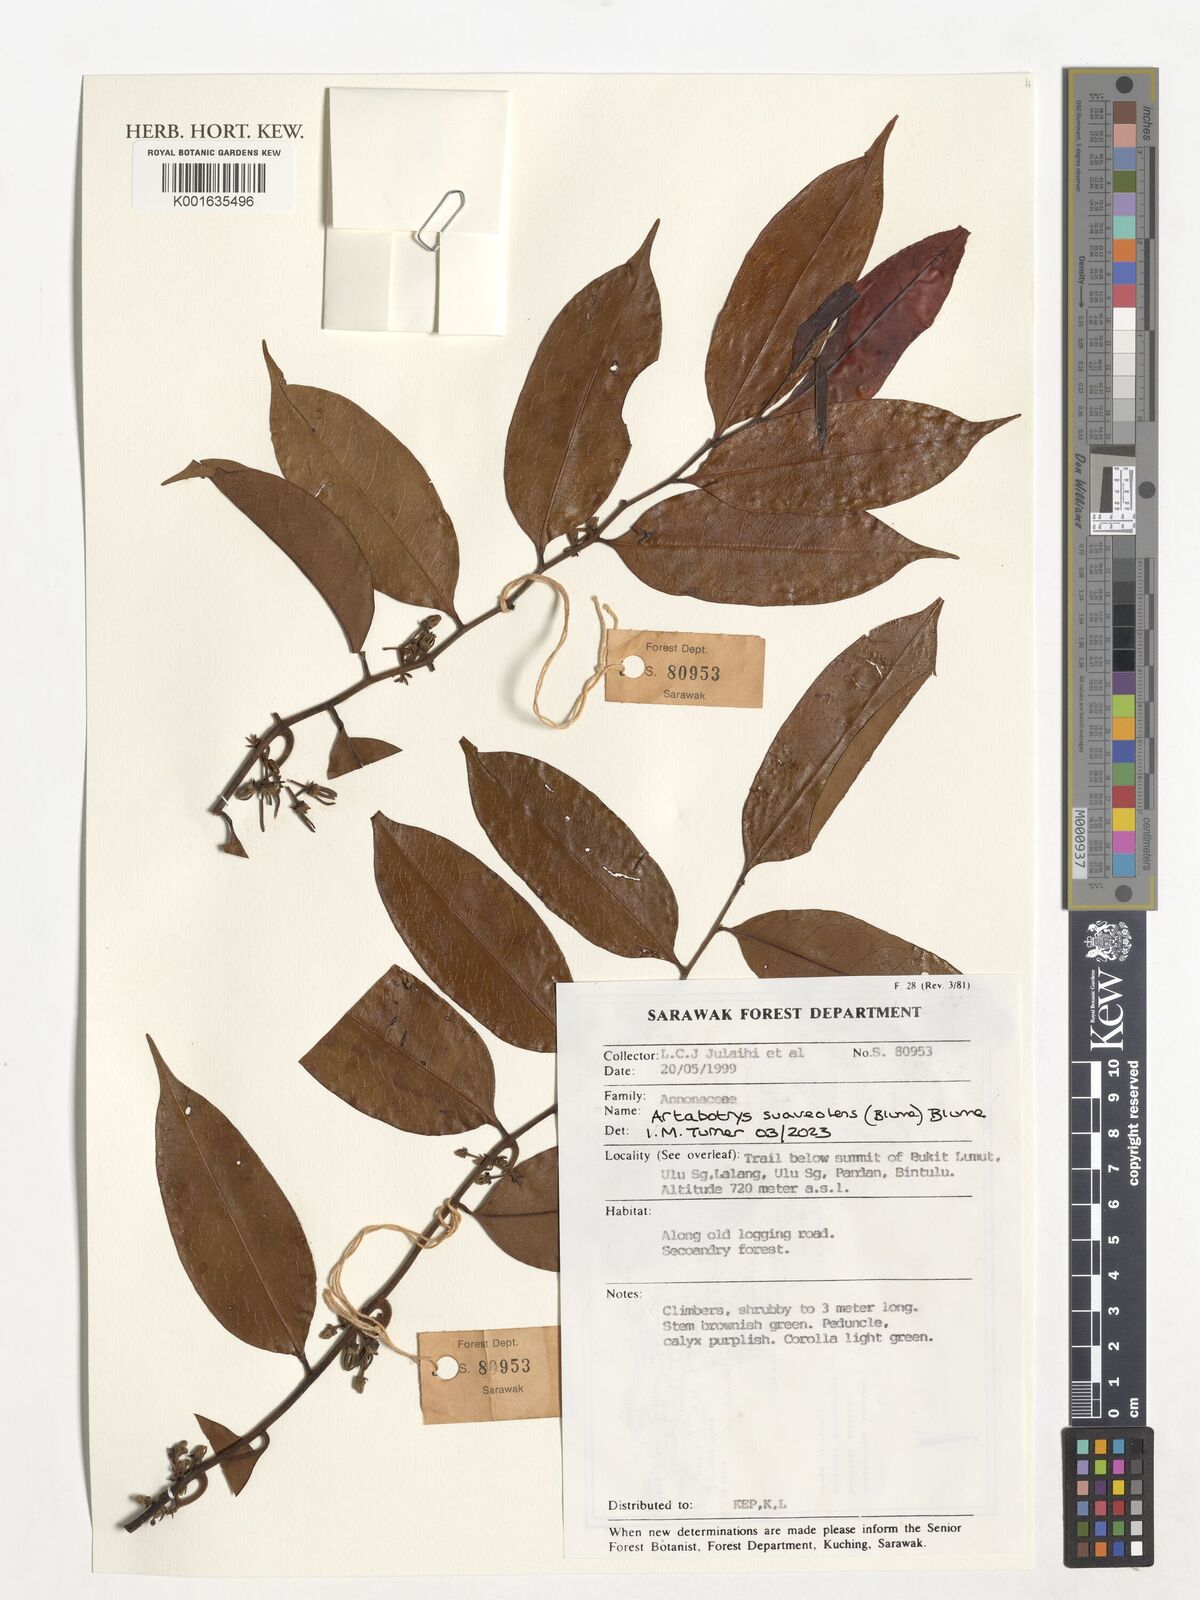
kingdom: Plantae
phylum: Tracheophyta
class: Magnoliopsida
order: Magnoliales
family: Annonaceae
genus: Artabotrys
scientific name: Artabotrys suaveolens
